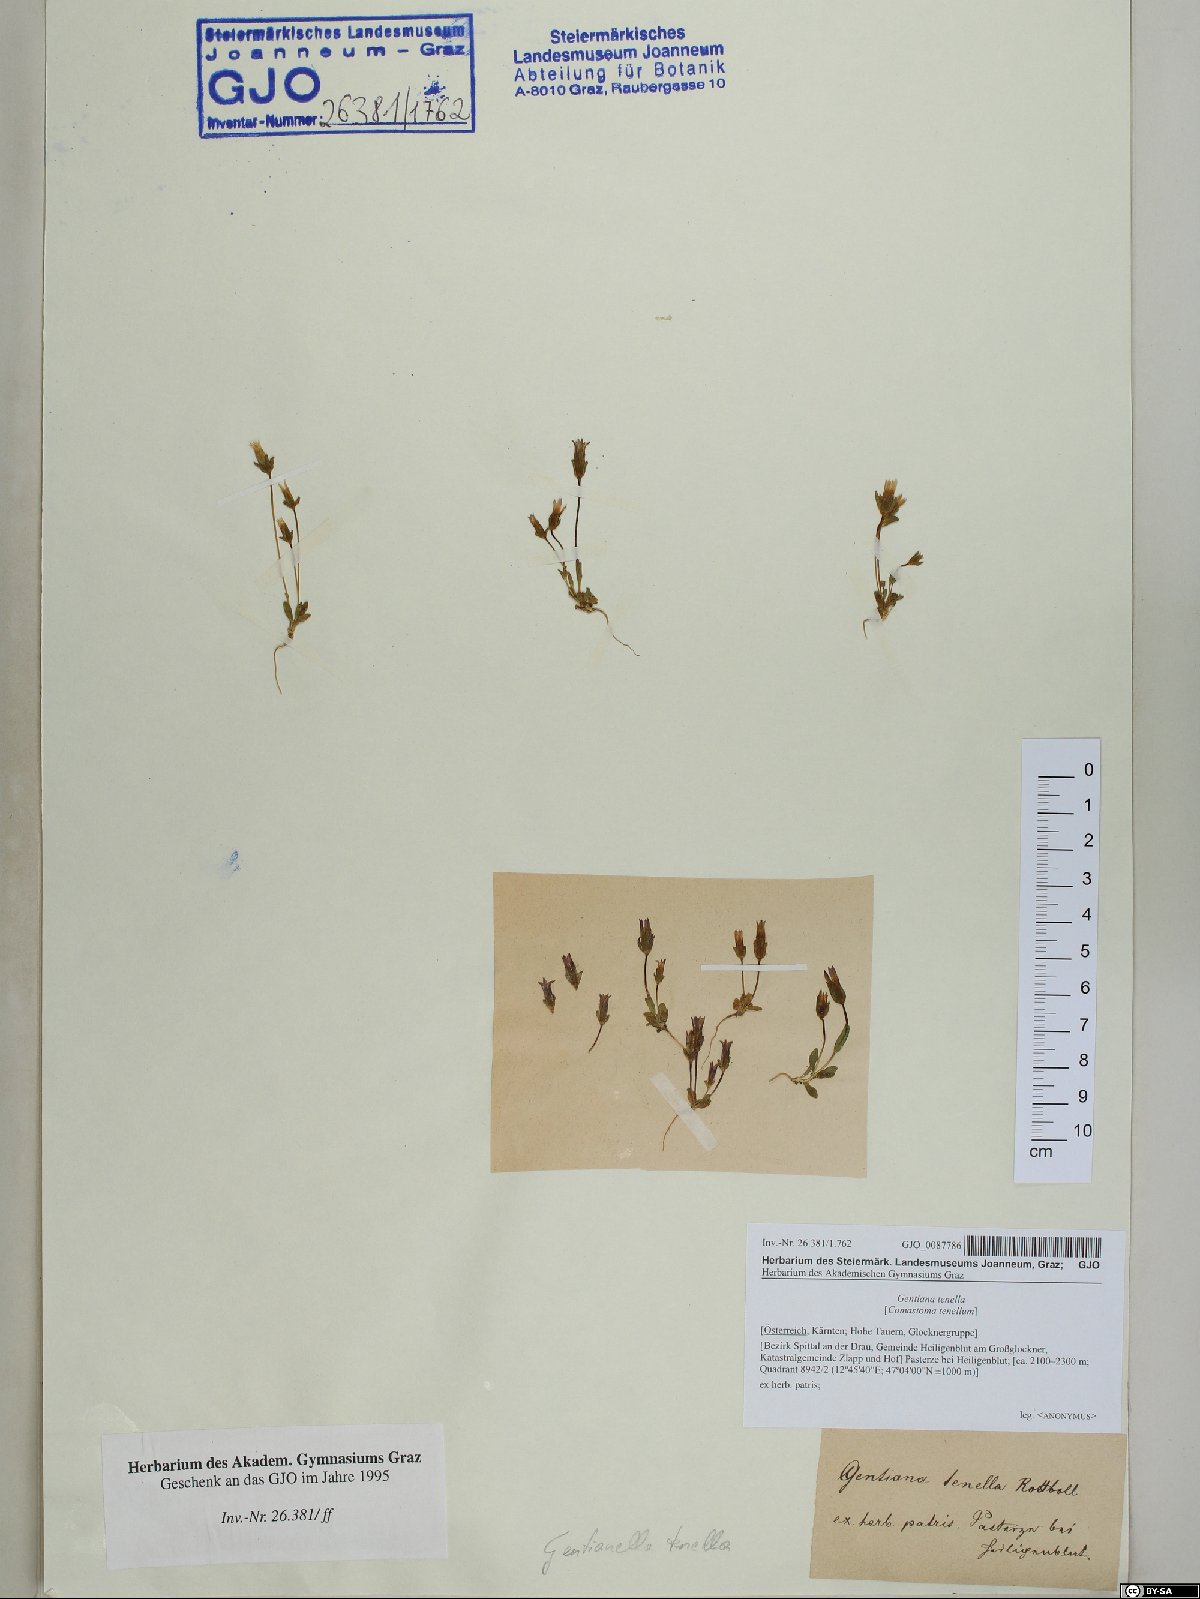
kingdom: Plantae
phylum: Tracheophyta
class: Magnoliopsida
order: Gentianales
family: Gentianaceae
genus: Comastoma
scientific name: Comastoma tenellum
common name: Dane's dwarf gentian
